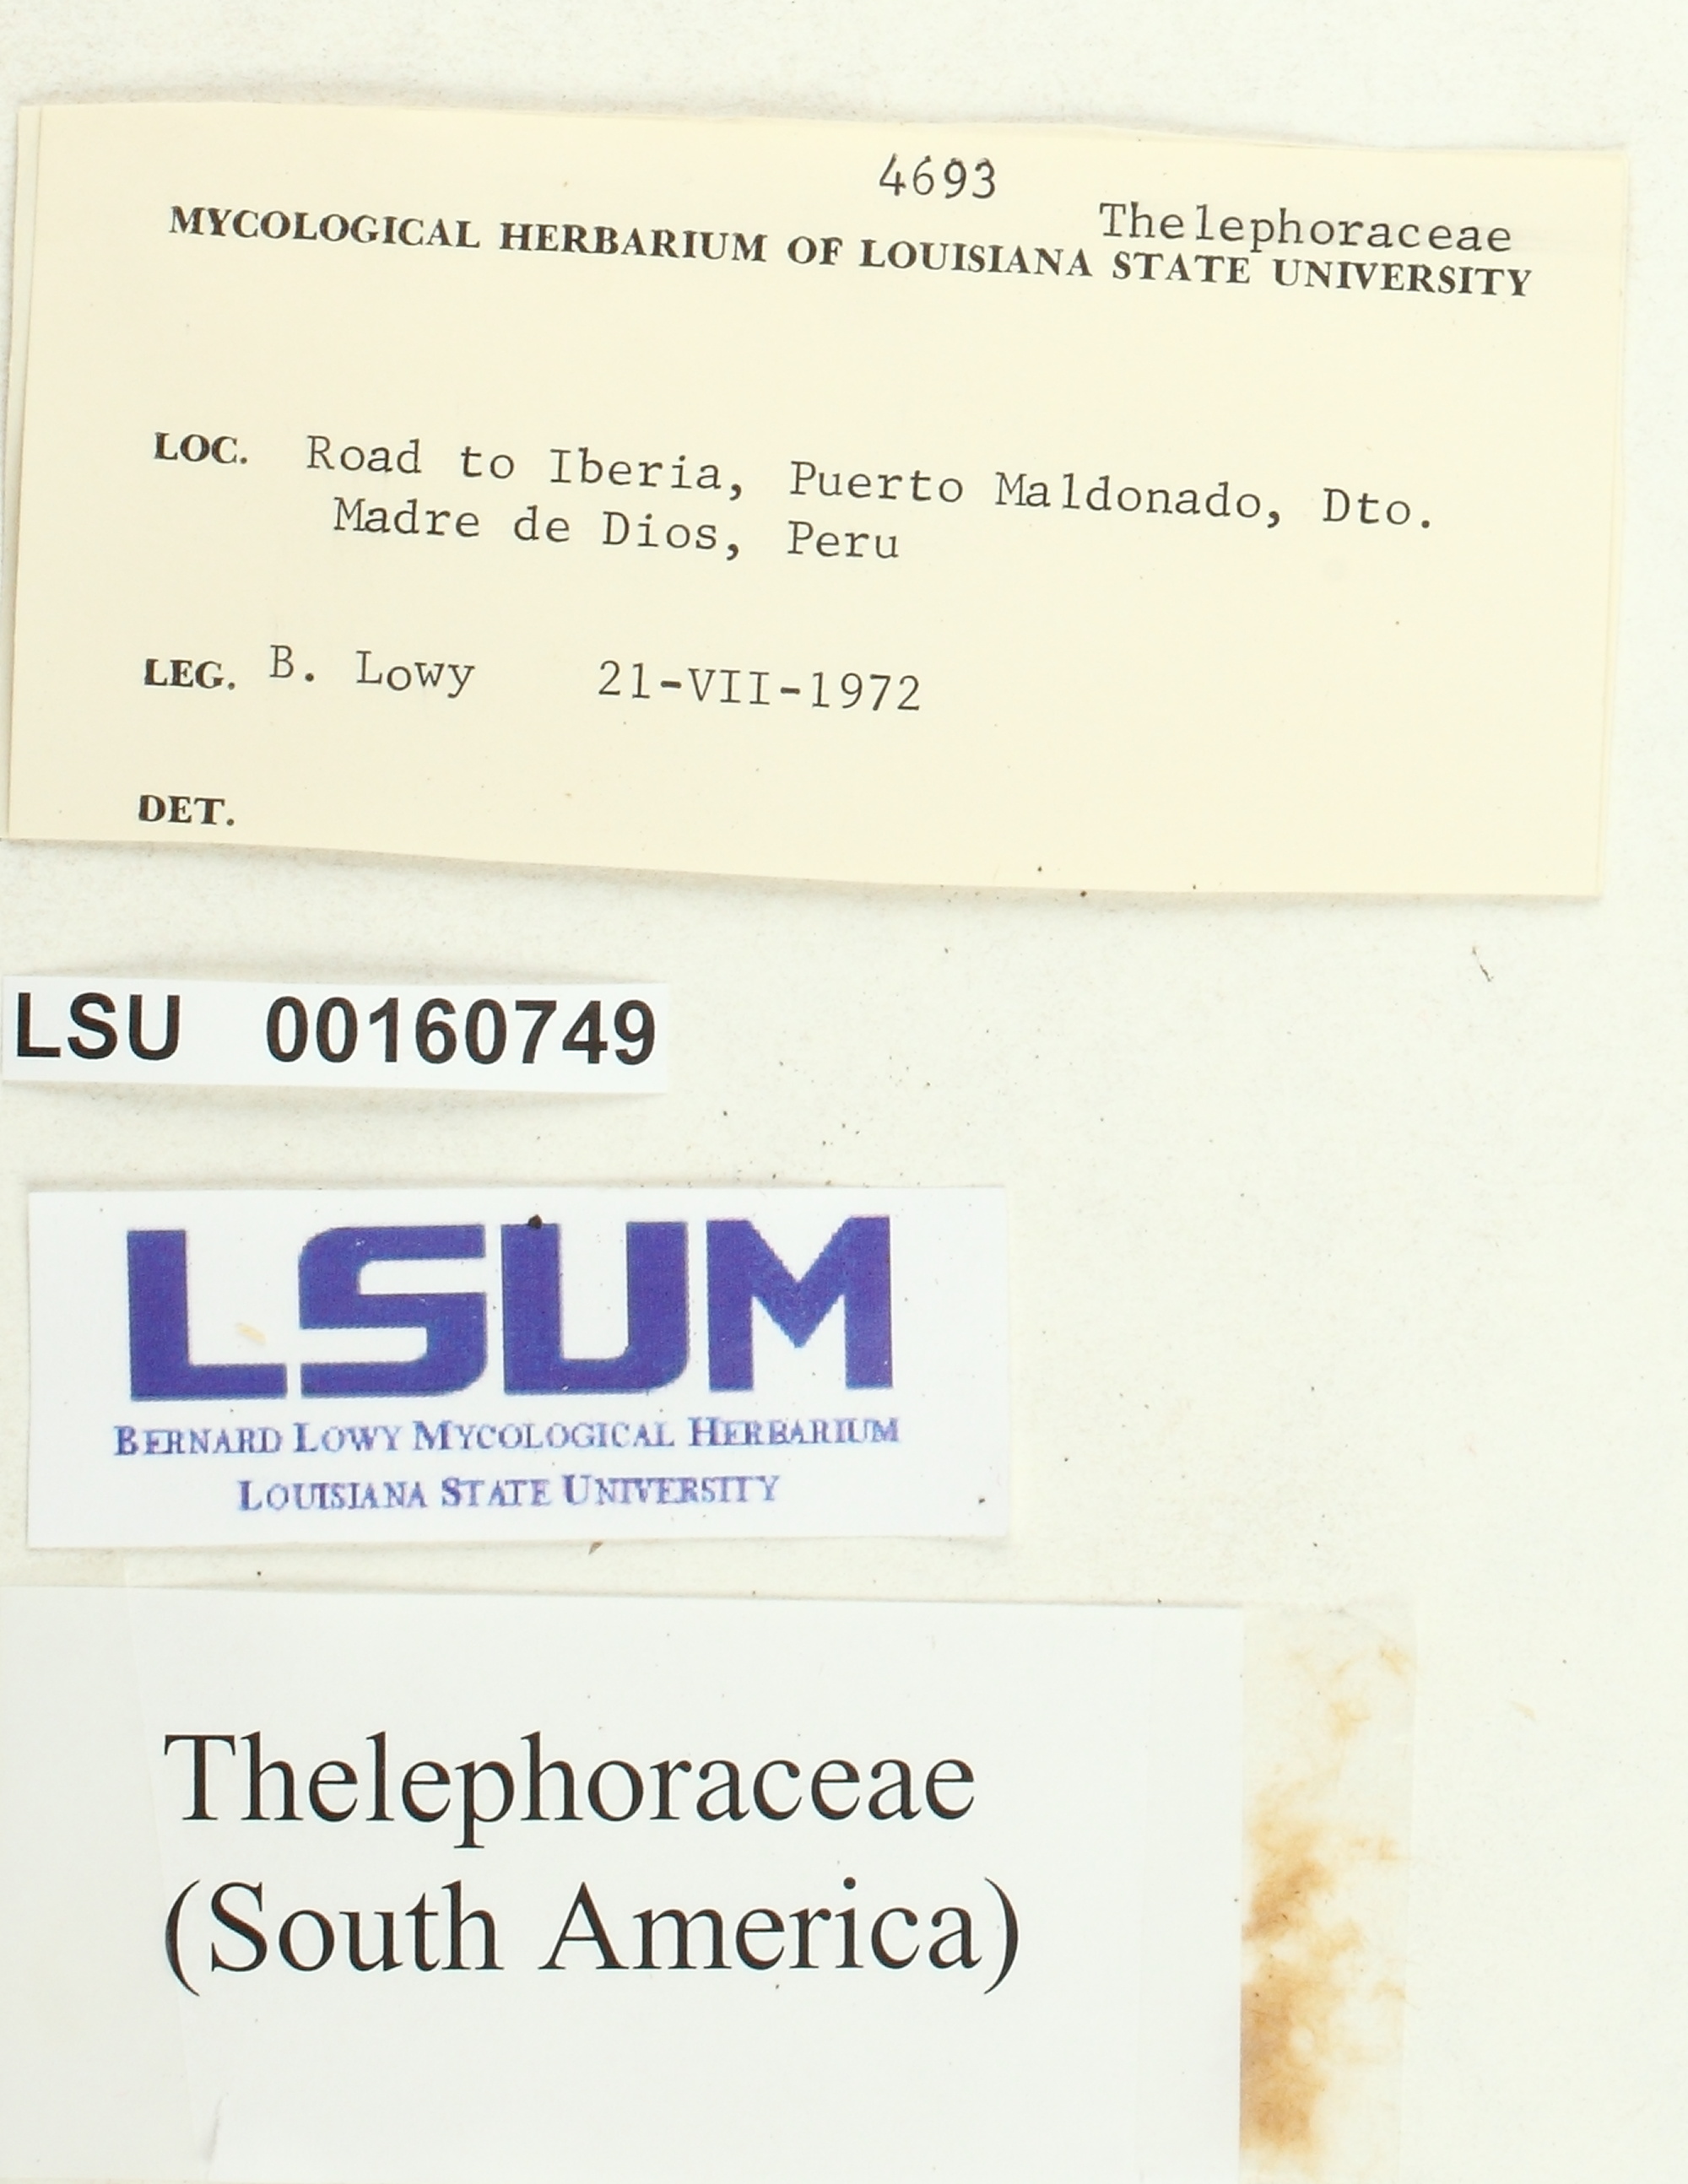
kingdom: Fungi
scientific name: Fungi
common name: Fungi
